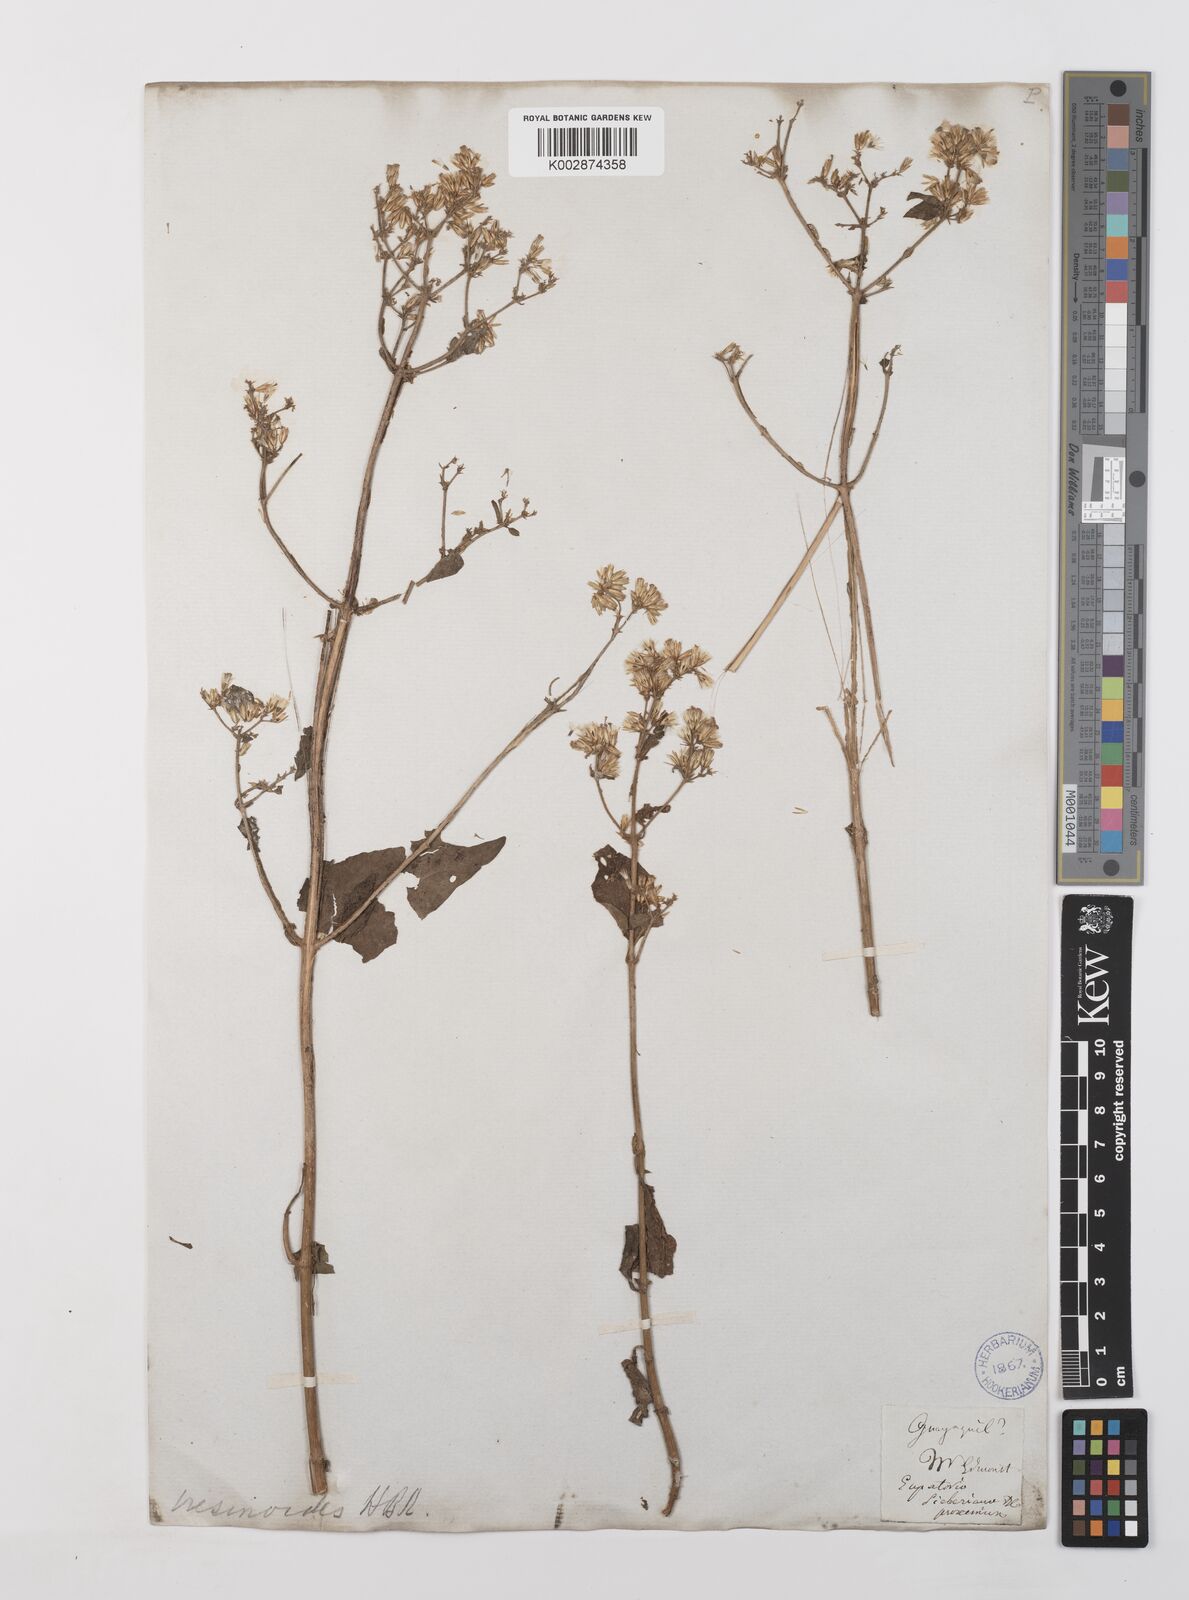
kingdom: Plantae
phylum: Tracheophyta
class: Magnoliopsida
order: Asterales
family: Asteraceae
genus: Condylidium
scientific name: Condylidium iresinoides
